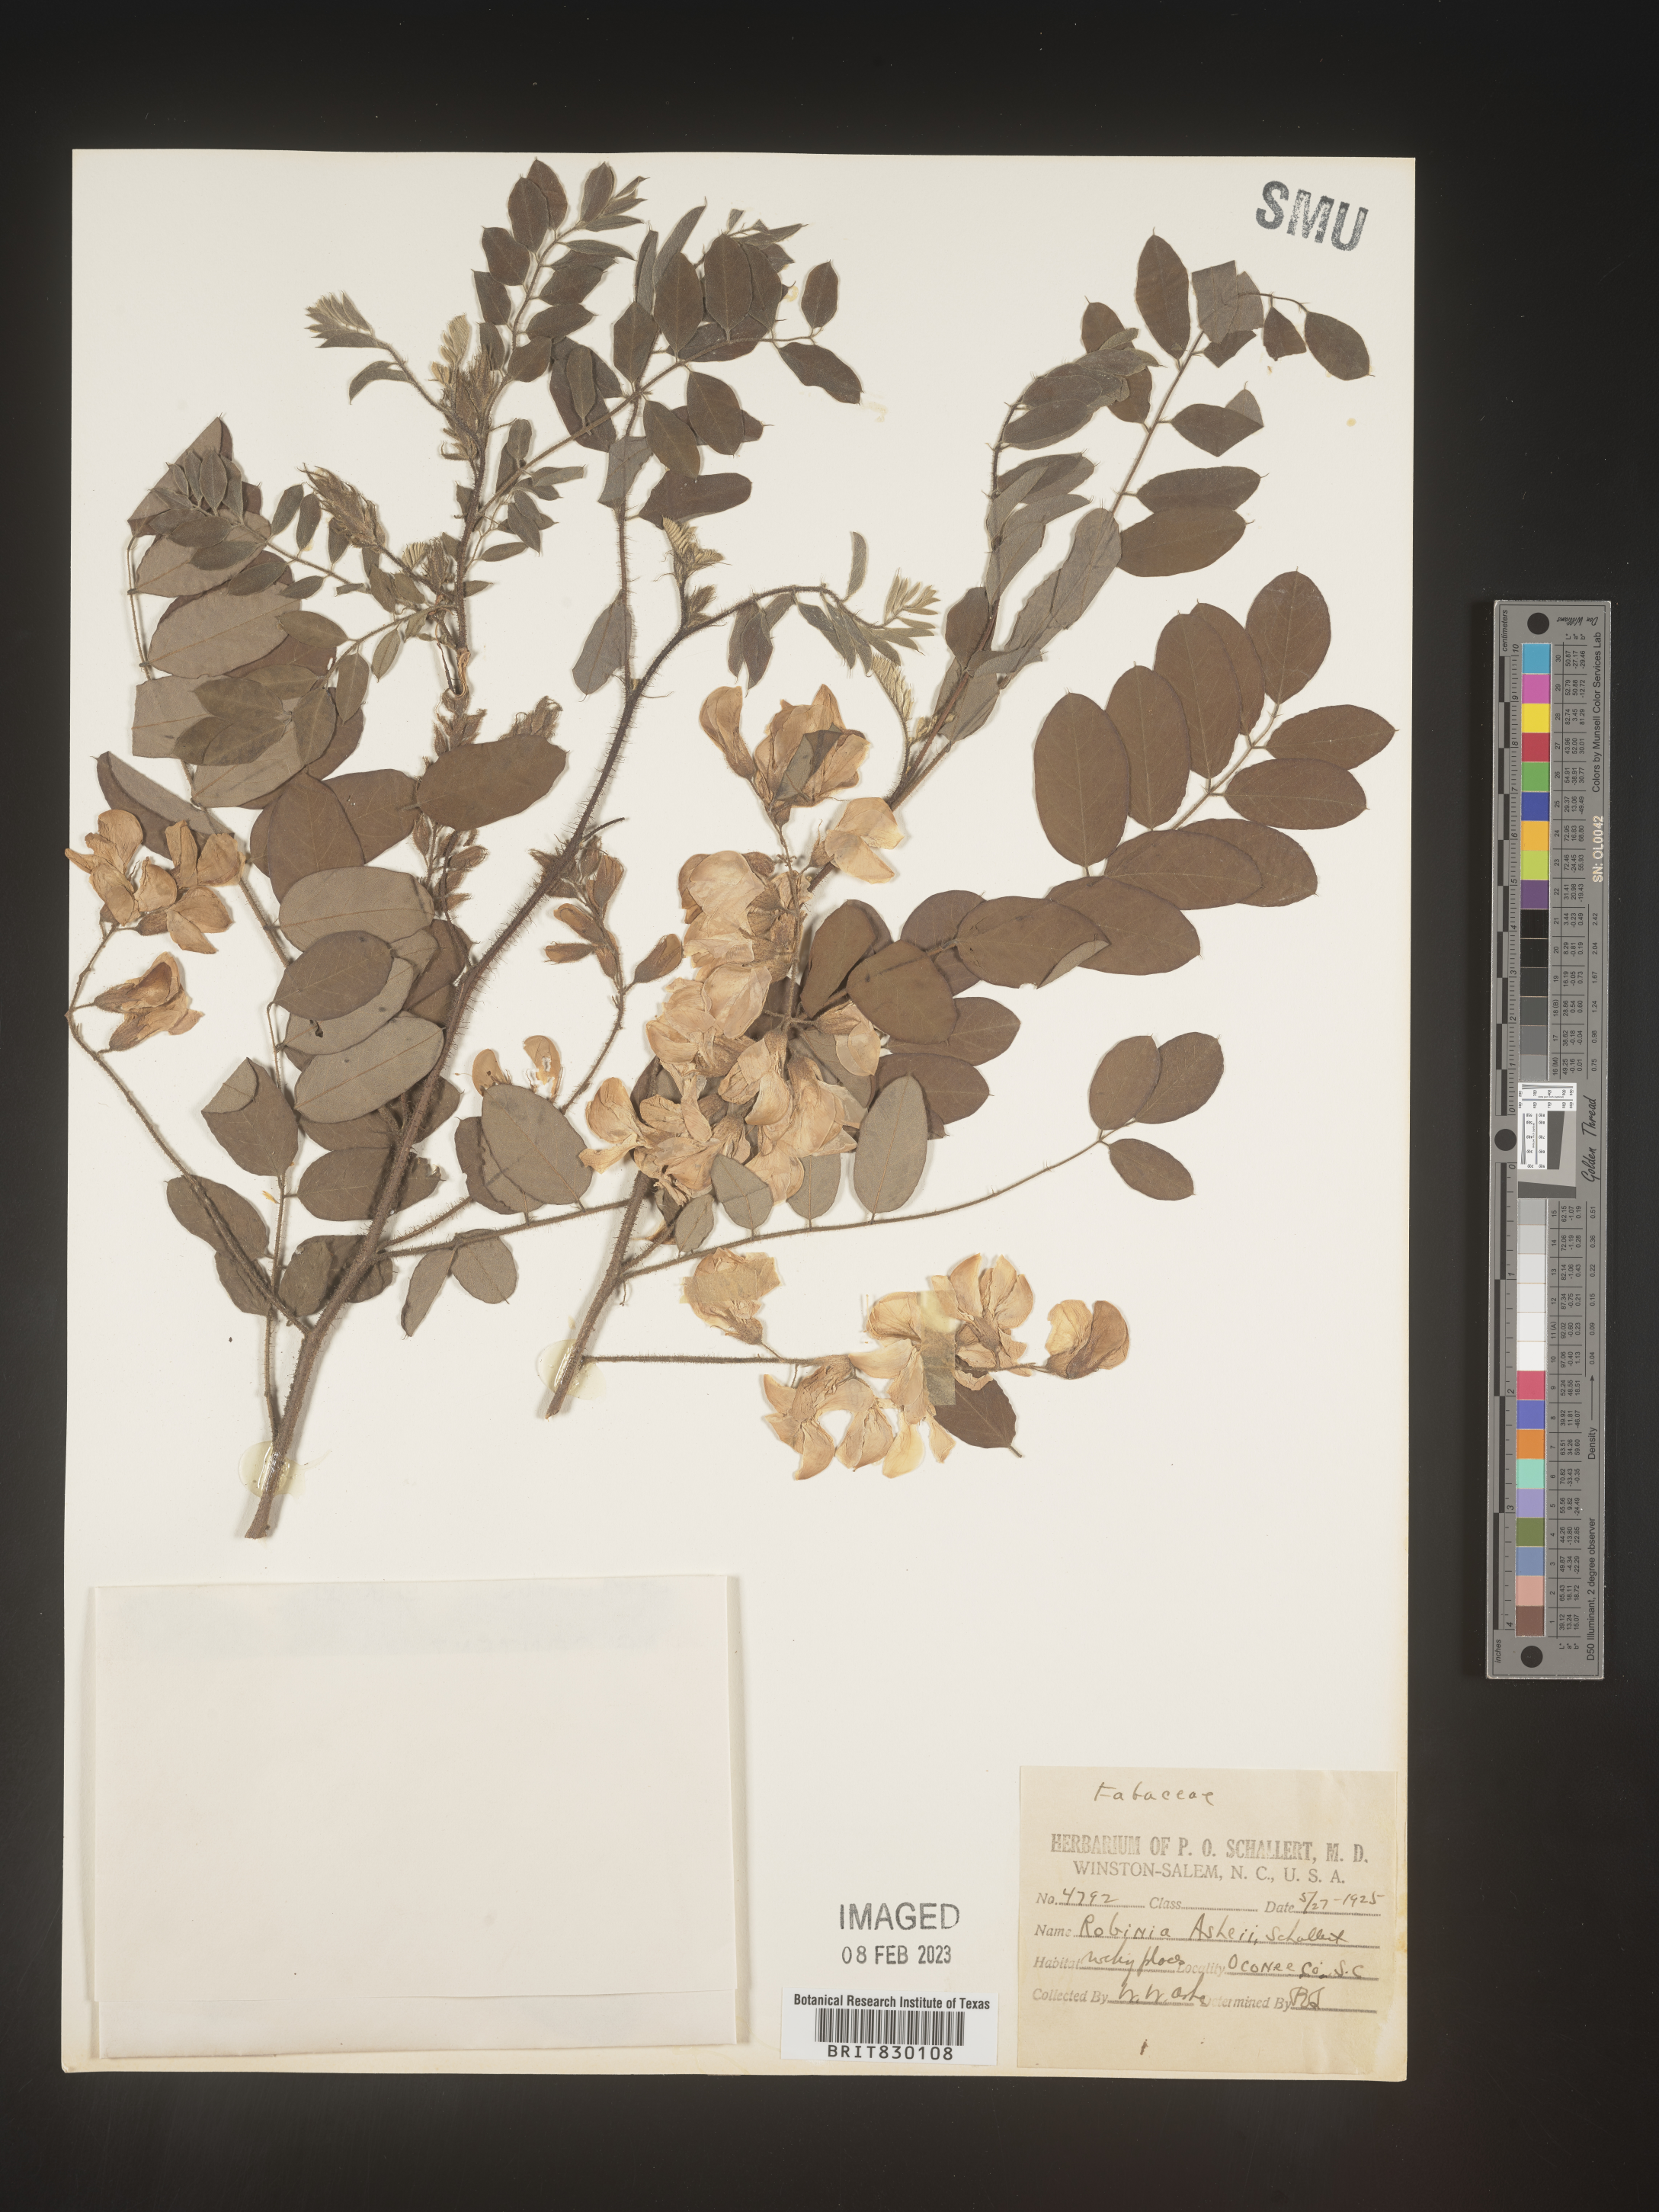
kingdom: Plantae
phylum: Tracheophyta
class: Magnoliopsida
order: Fabales
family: Fabaceae
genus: Robinia
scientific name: Robinia
